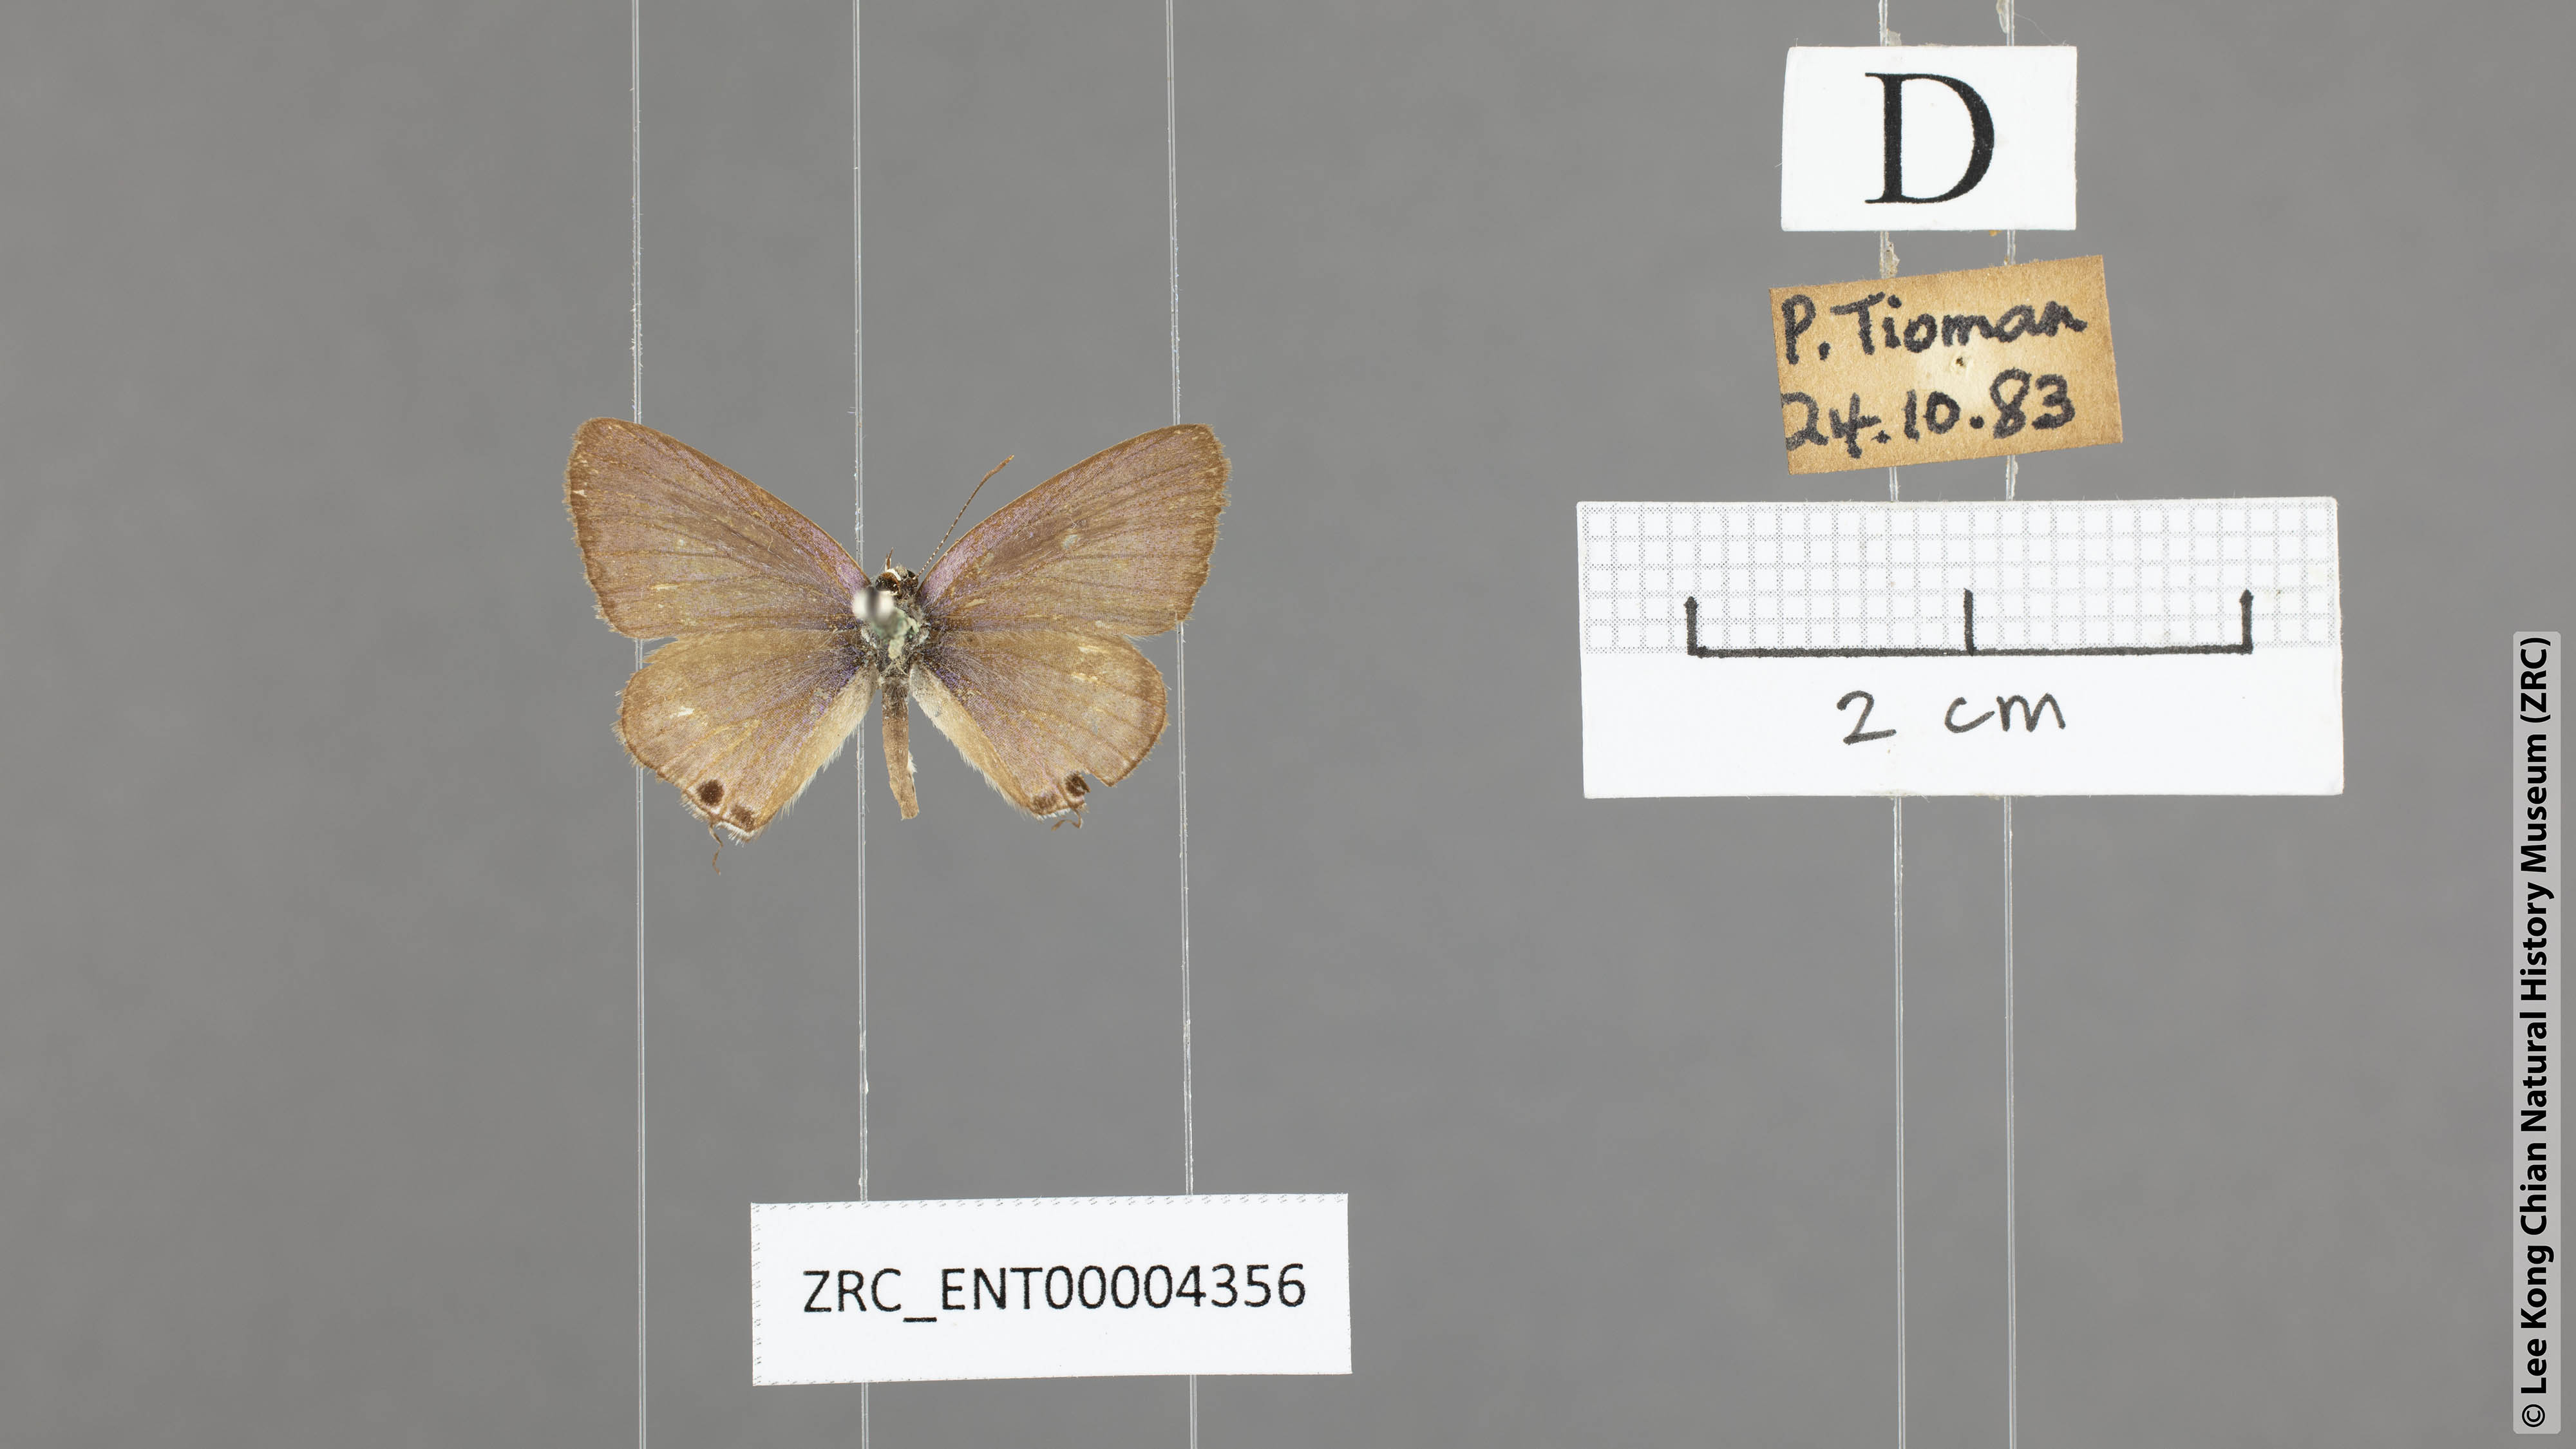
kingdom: Animalia
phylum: Arthropoda
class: Insecta
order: Lepidoptera
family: Lycaenidae
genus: Lampides
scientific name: Lampides boeticus
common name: Long-tailed blue
